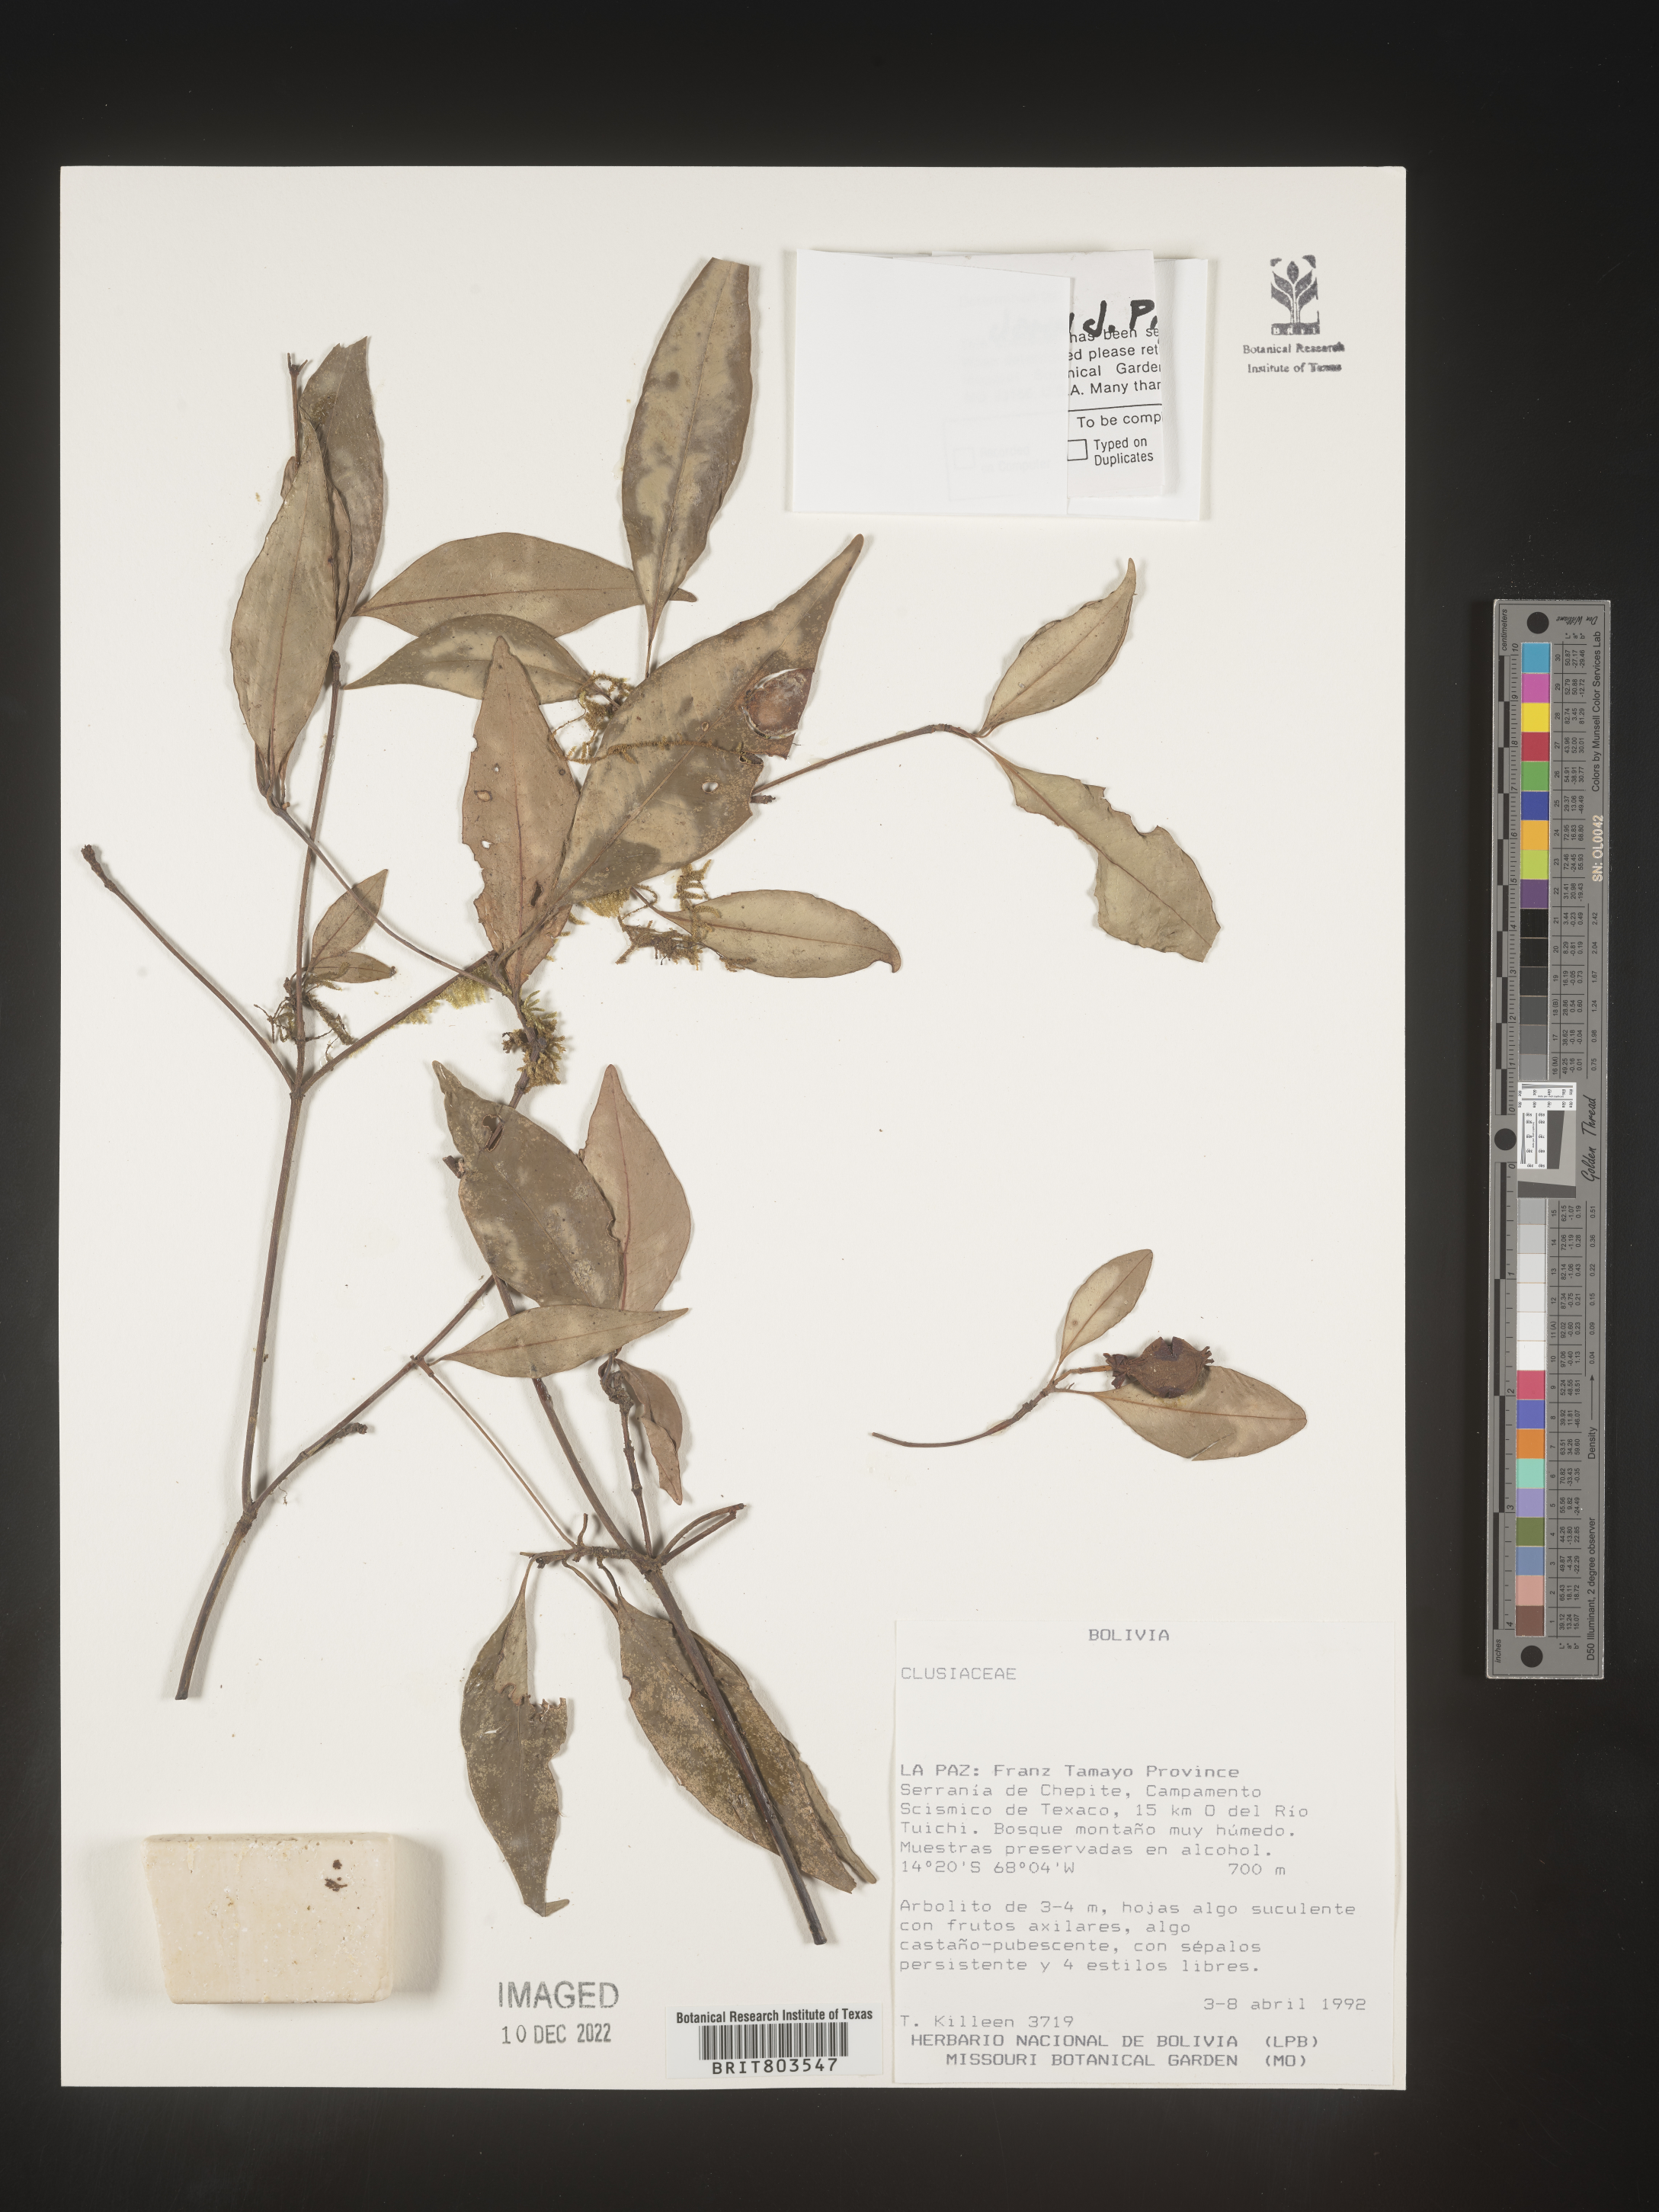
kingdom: Plantae
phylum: Tracheophyta
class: Magnoliopsida
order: Malpighiales
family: Clusiaceae
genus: Tovomita
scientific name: Tovomita
